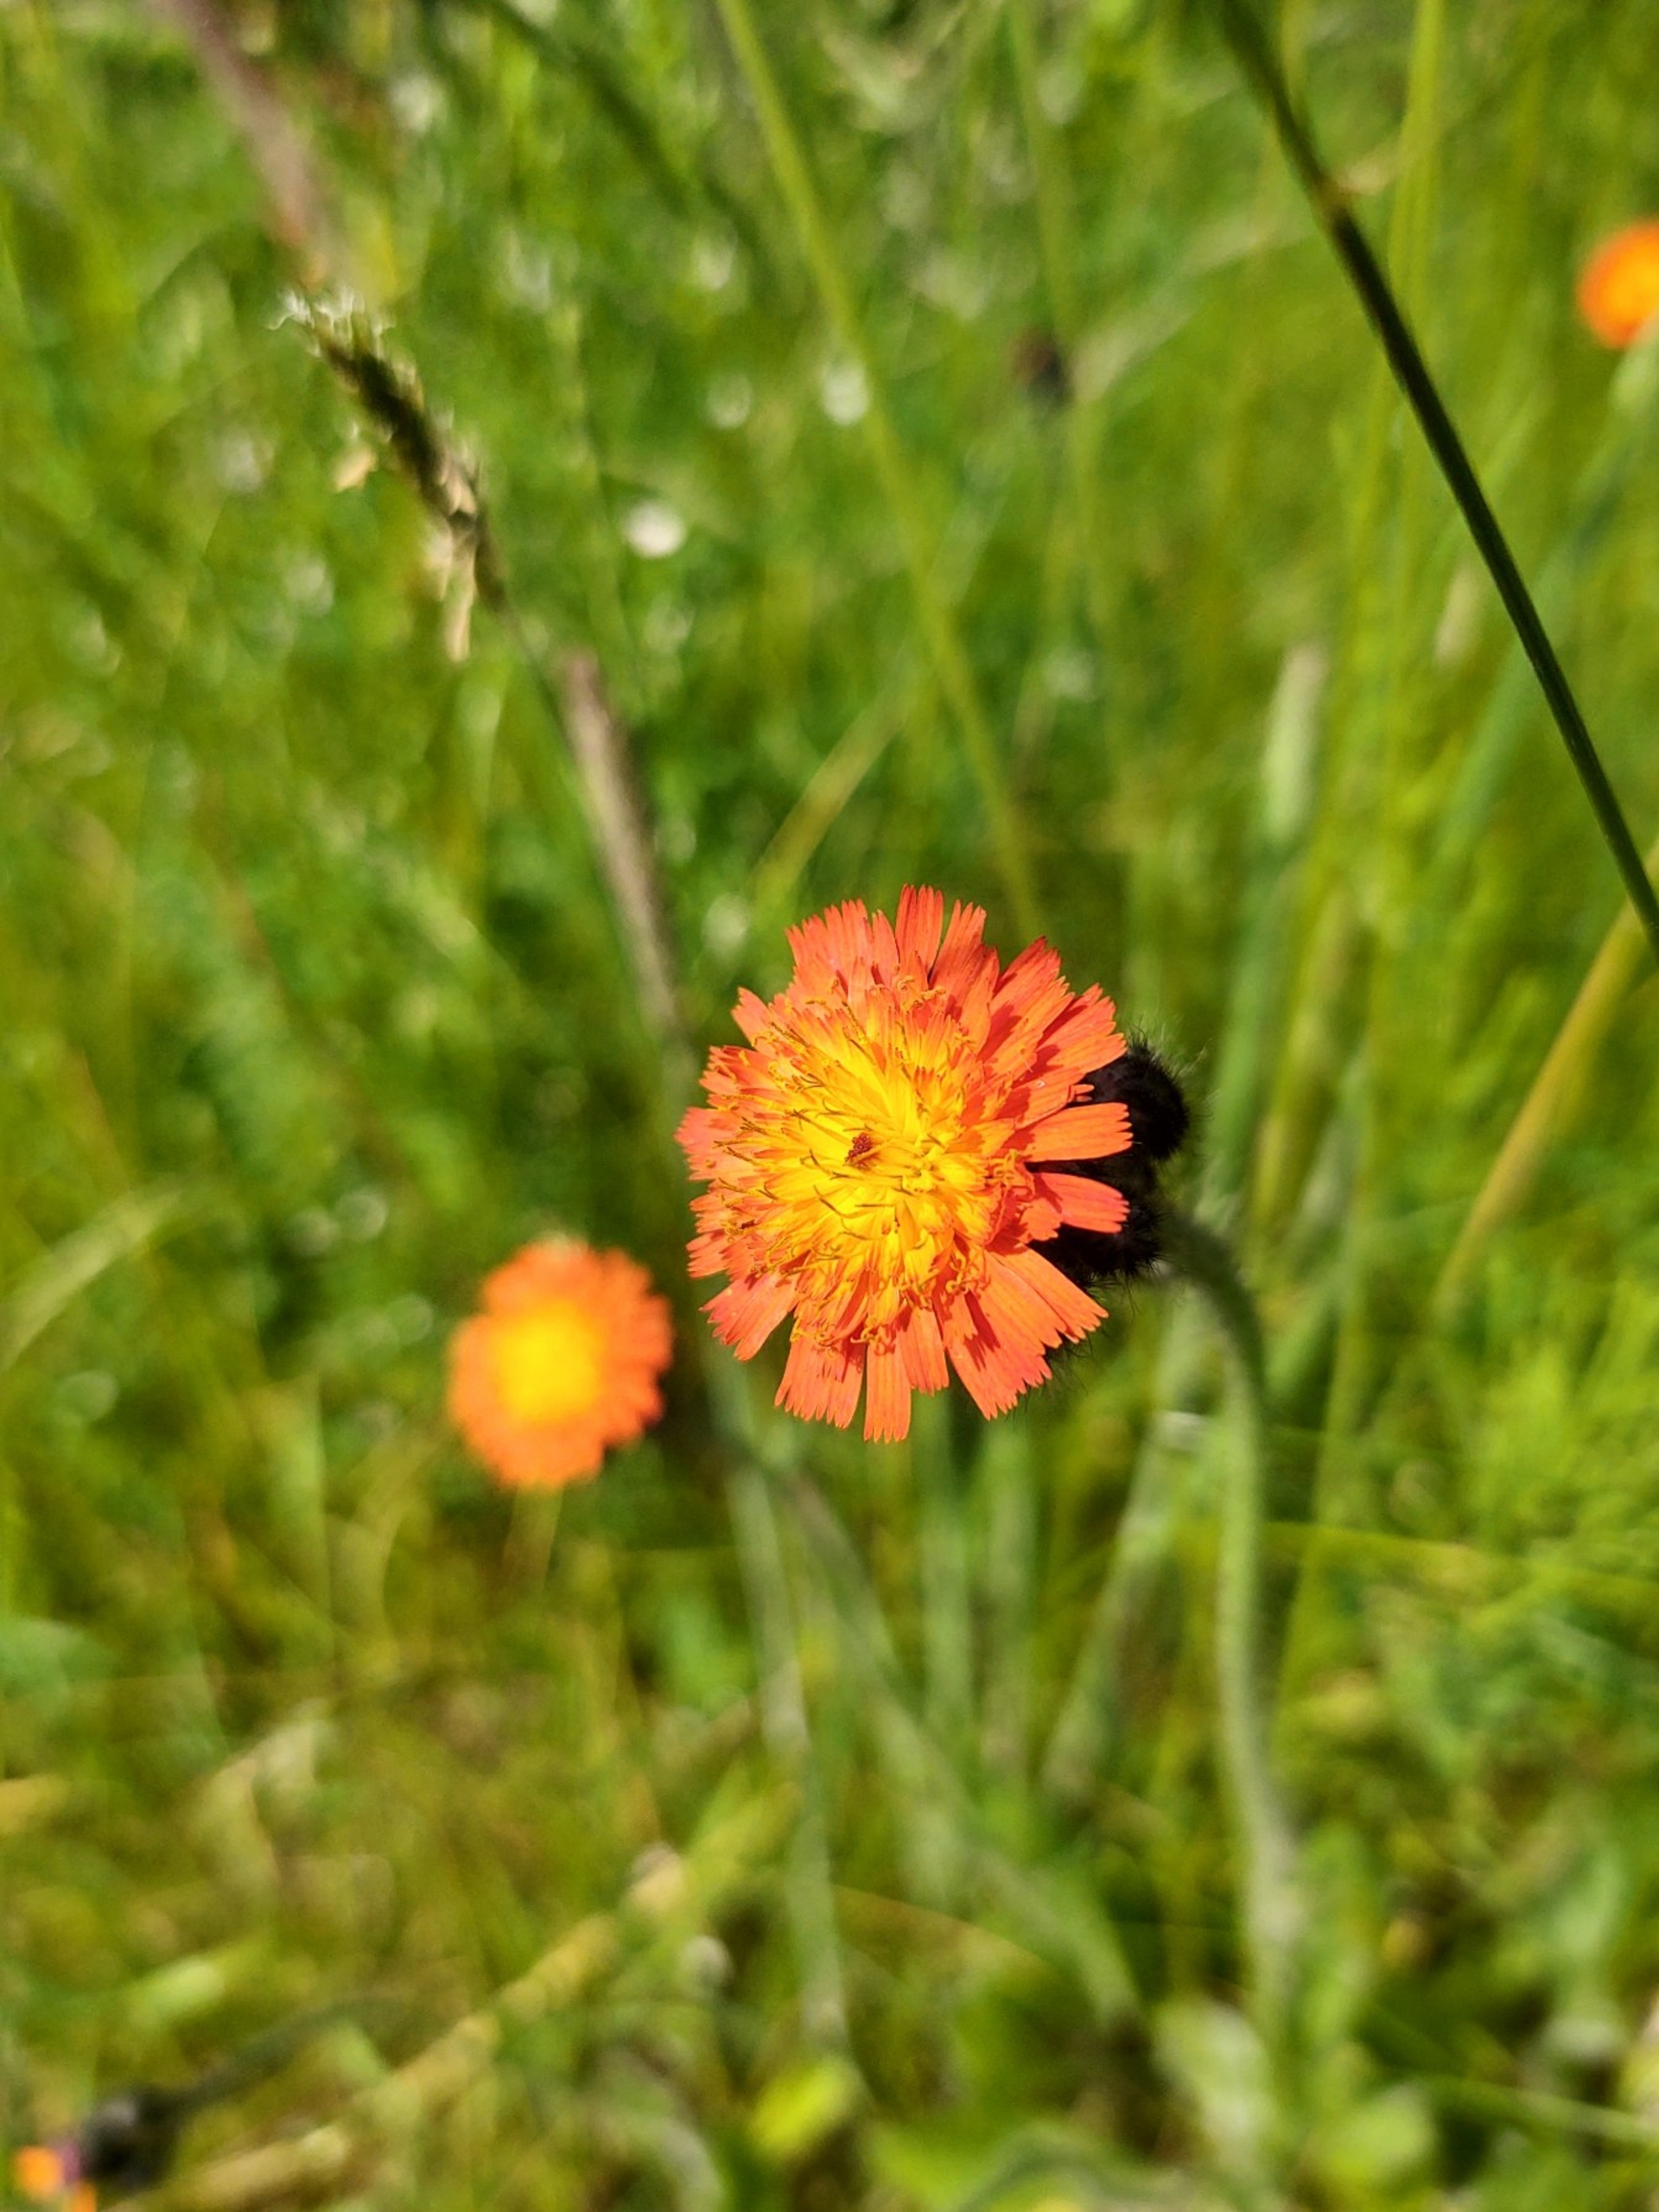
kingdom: Plantae
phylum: Tracheophyta
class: Magnoliopsida
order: Asterales
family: Asteraceae
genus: Pilosella
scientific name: Pilosella aurantiaca
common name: Pomerans-høgeurt
